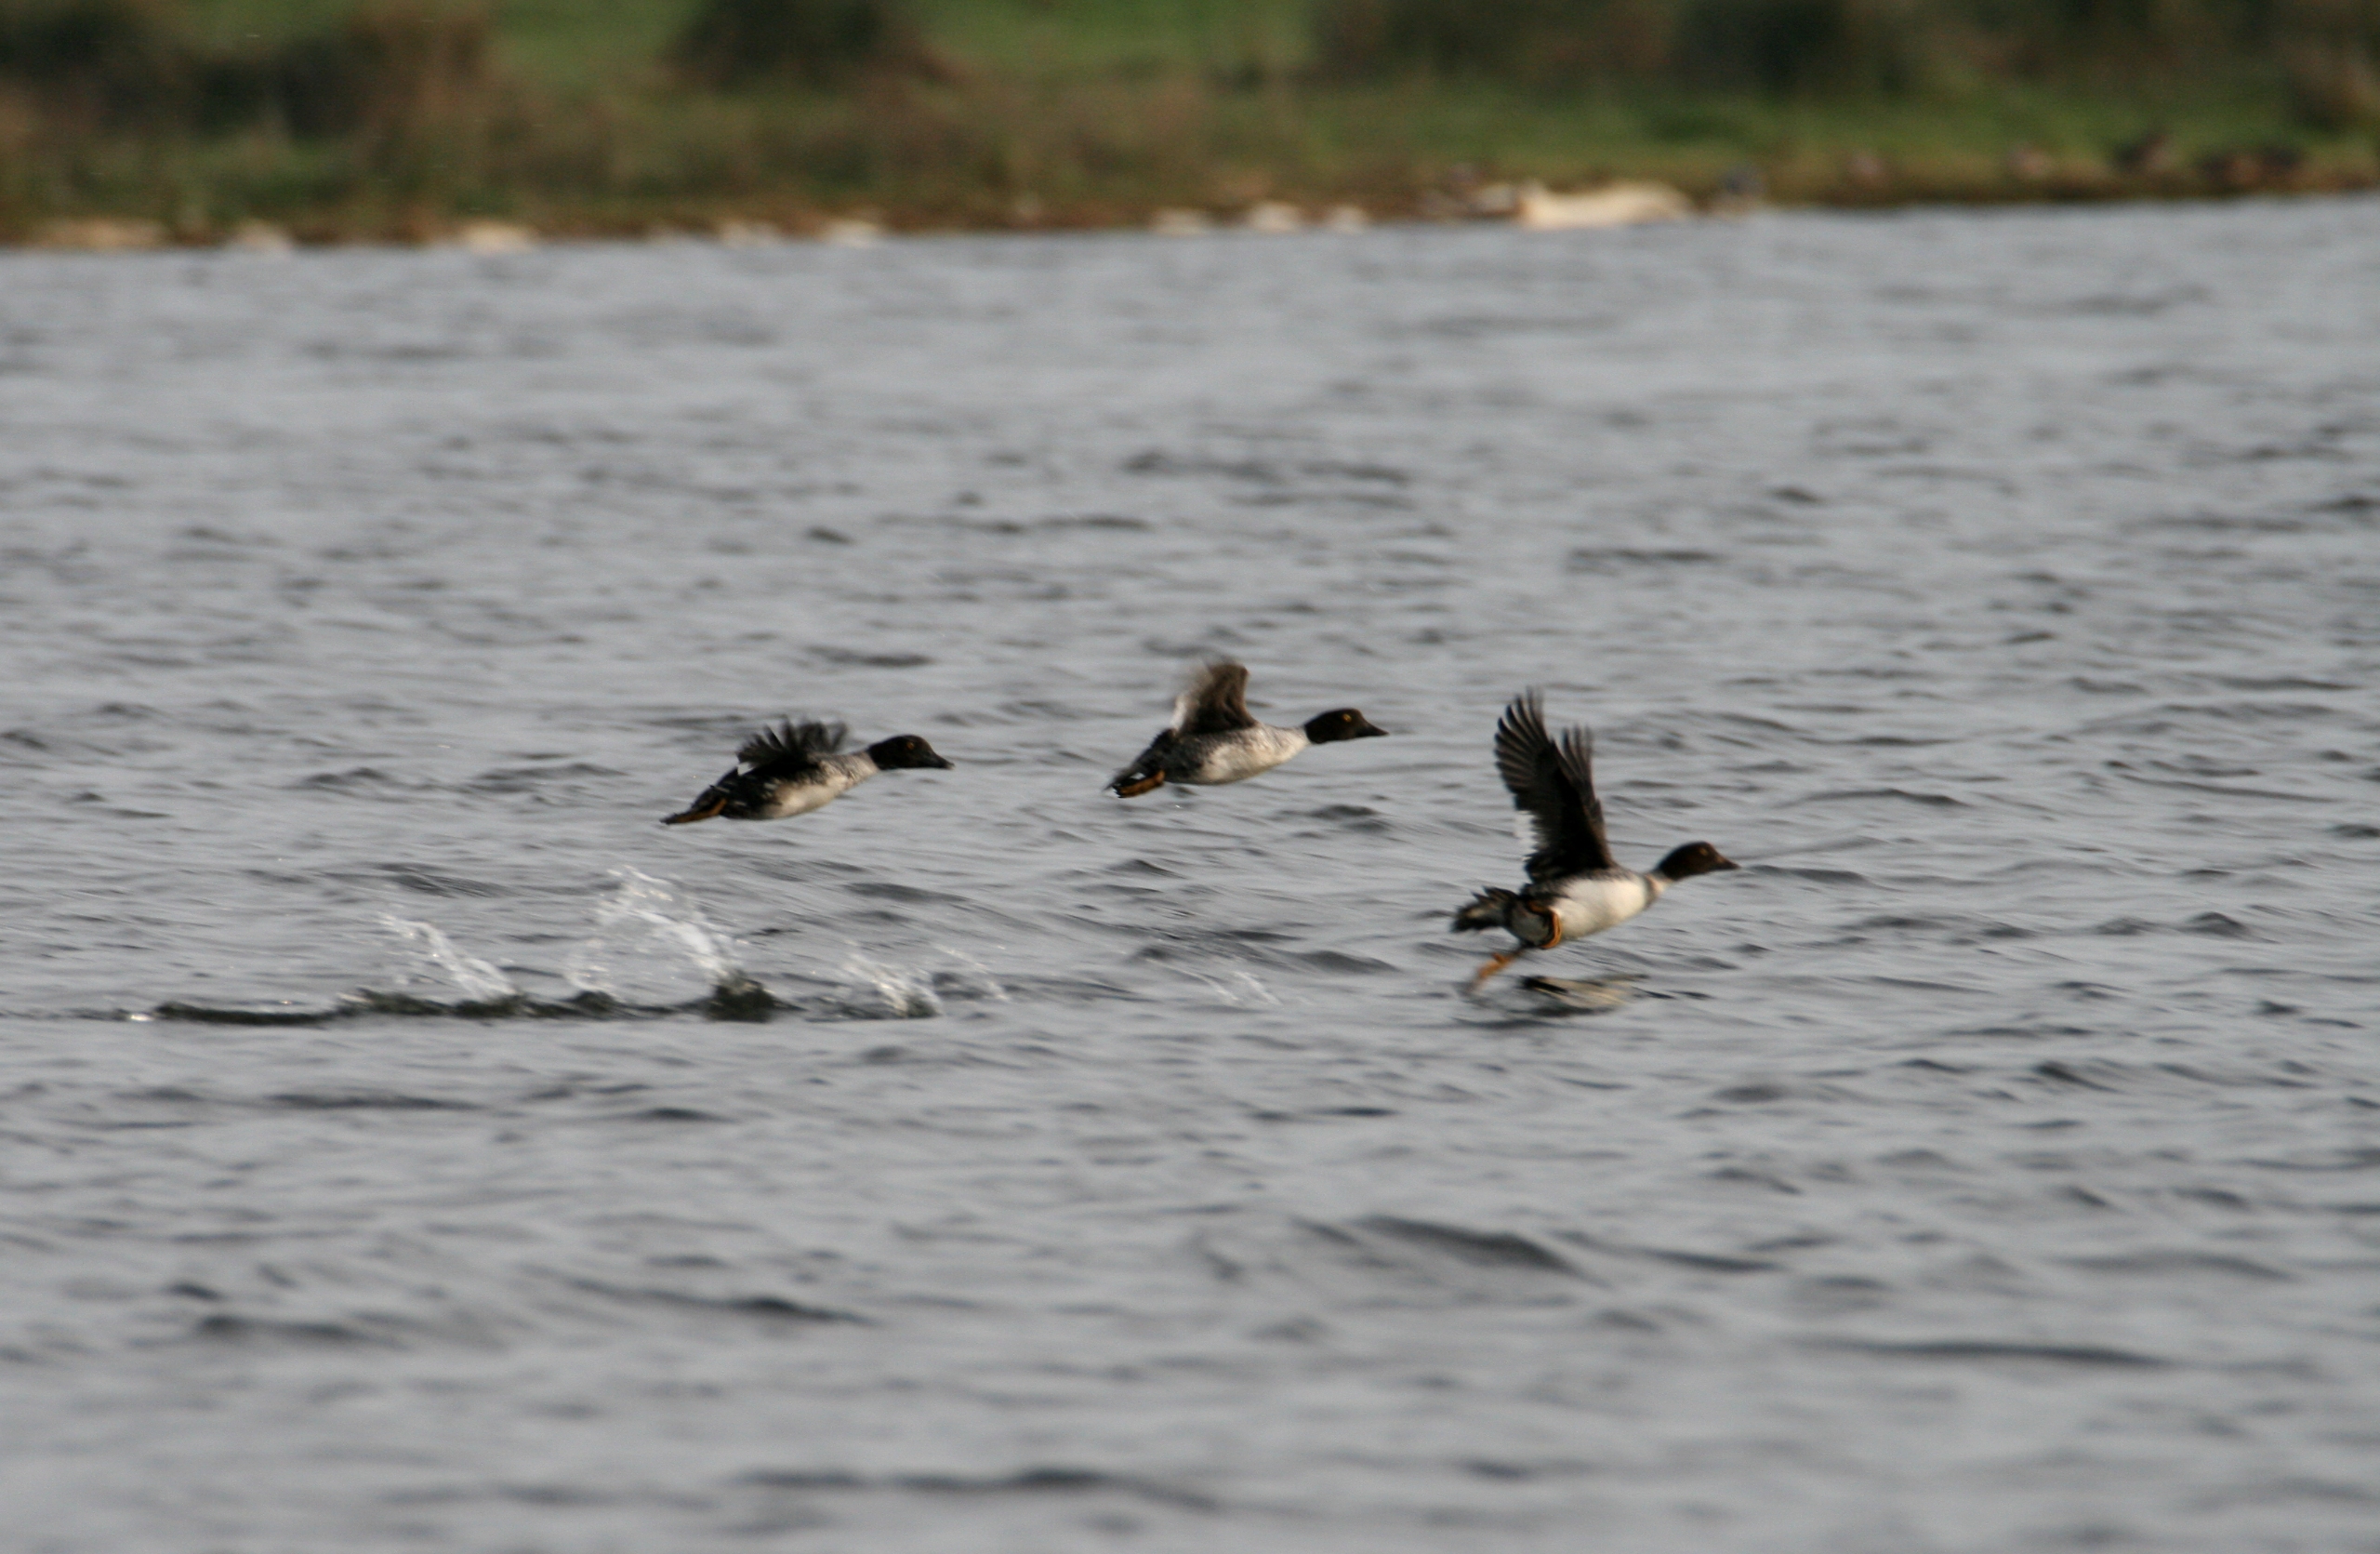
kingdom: Animalia
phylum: Chordata
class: Aves
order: Anseriformes
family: Anatidae
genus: Bucephala
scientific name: Bucephala clangula
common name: Hvinand
